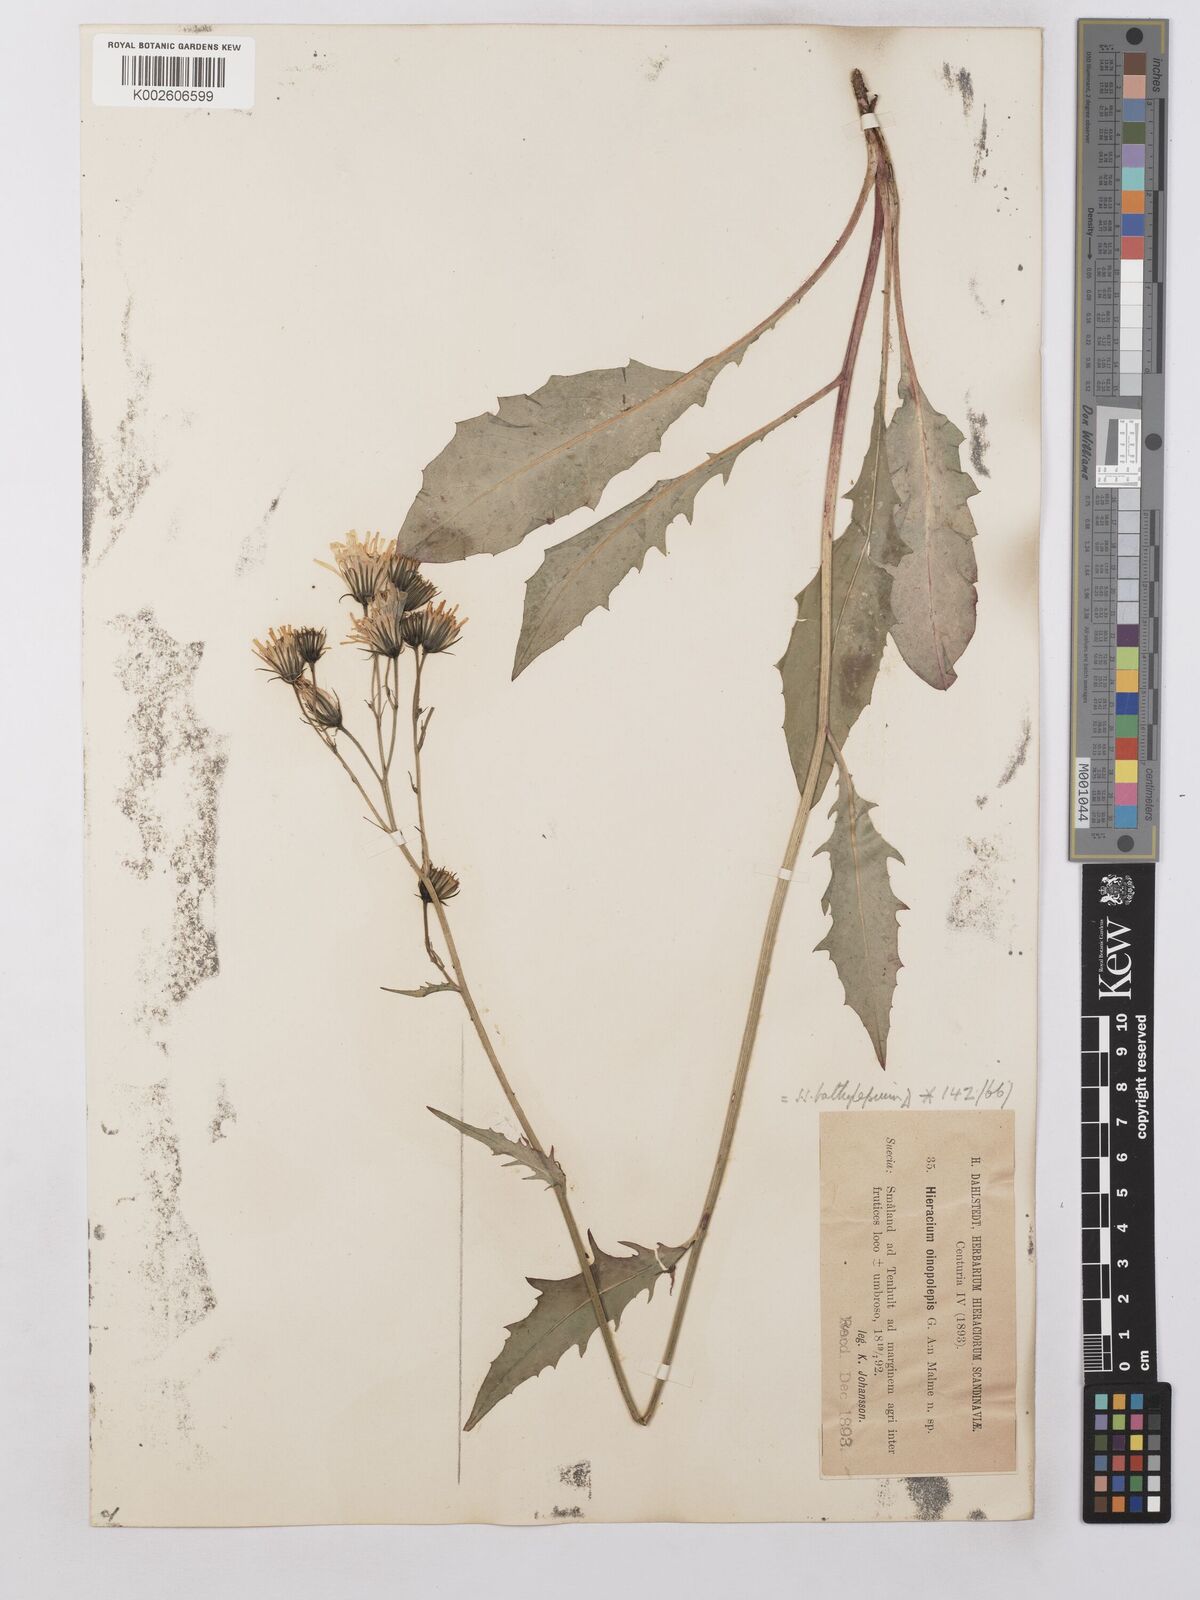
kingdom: Plantae
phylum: Tracheophyta
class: Magnoliopsida
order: Asterales
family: Asteraceae
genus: Hieracium
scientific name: Hieracium lachenalii
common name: Common hawkweed
